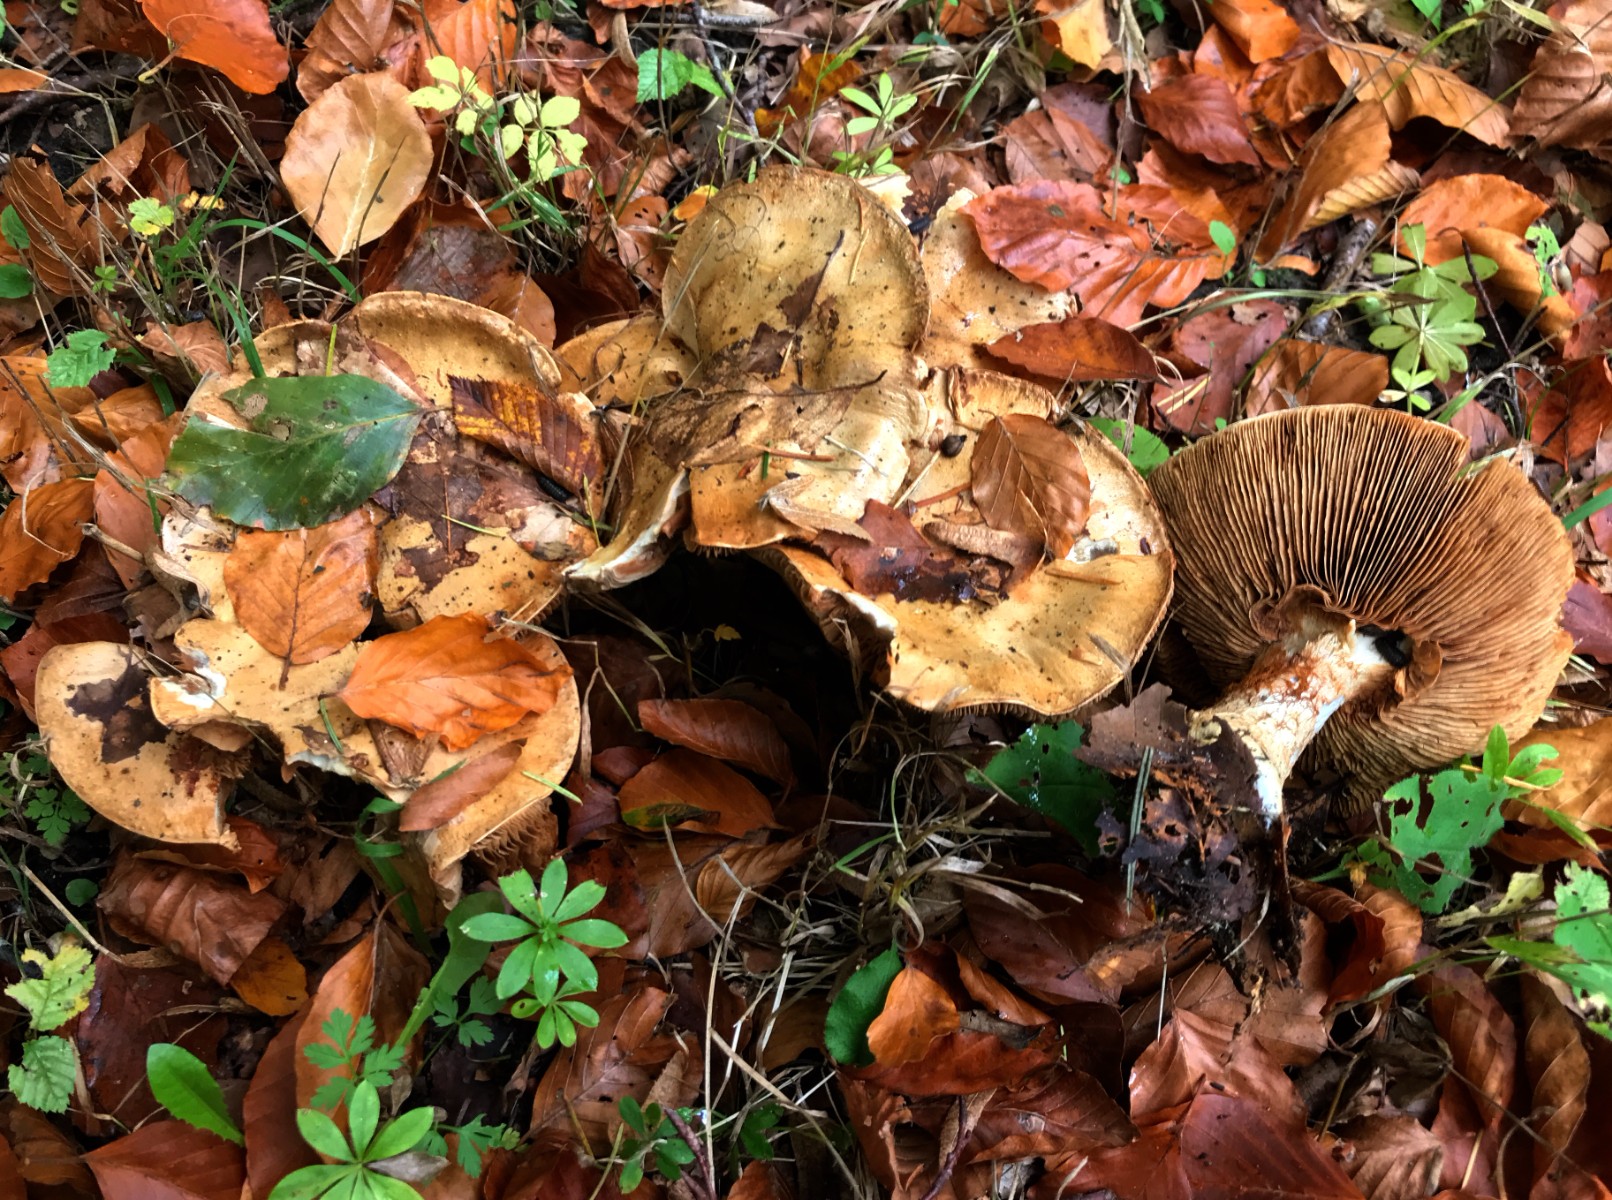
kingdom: Fungi
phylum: Basidiomycota
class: Agaricomycetes
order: Agaricales
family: Cortinariaceae
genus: Cortinarius
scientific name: Cortinarius anserinus
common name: bøge-slørhat
